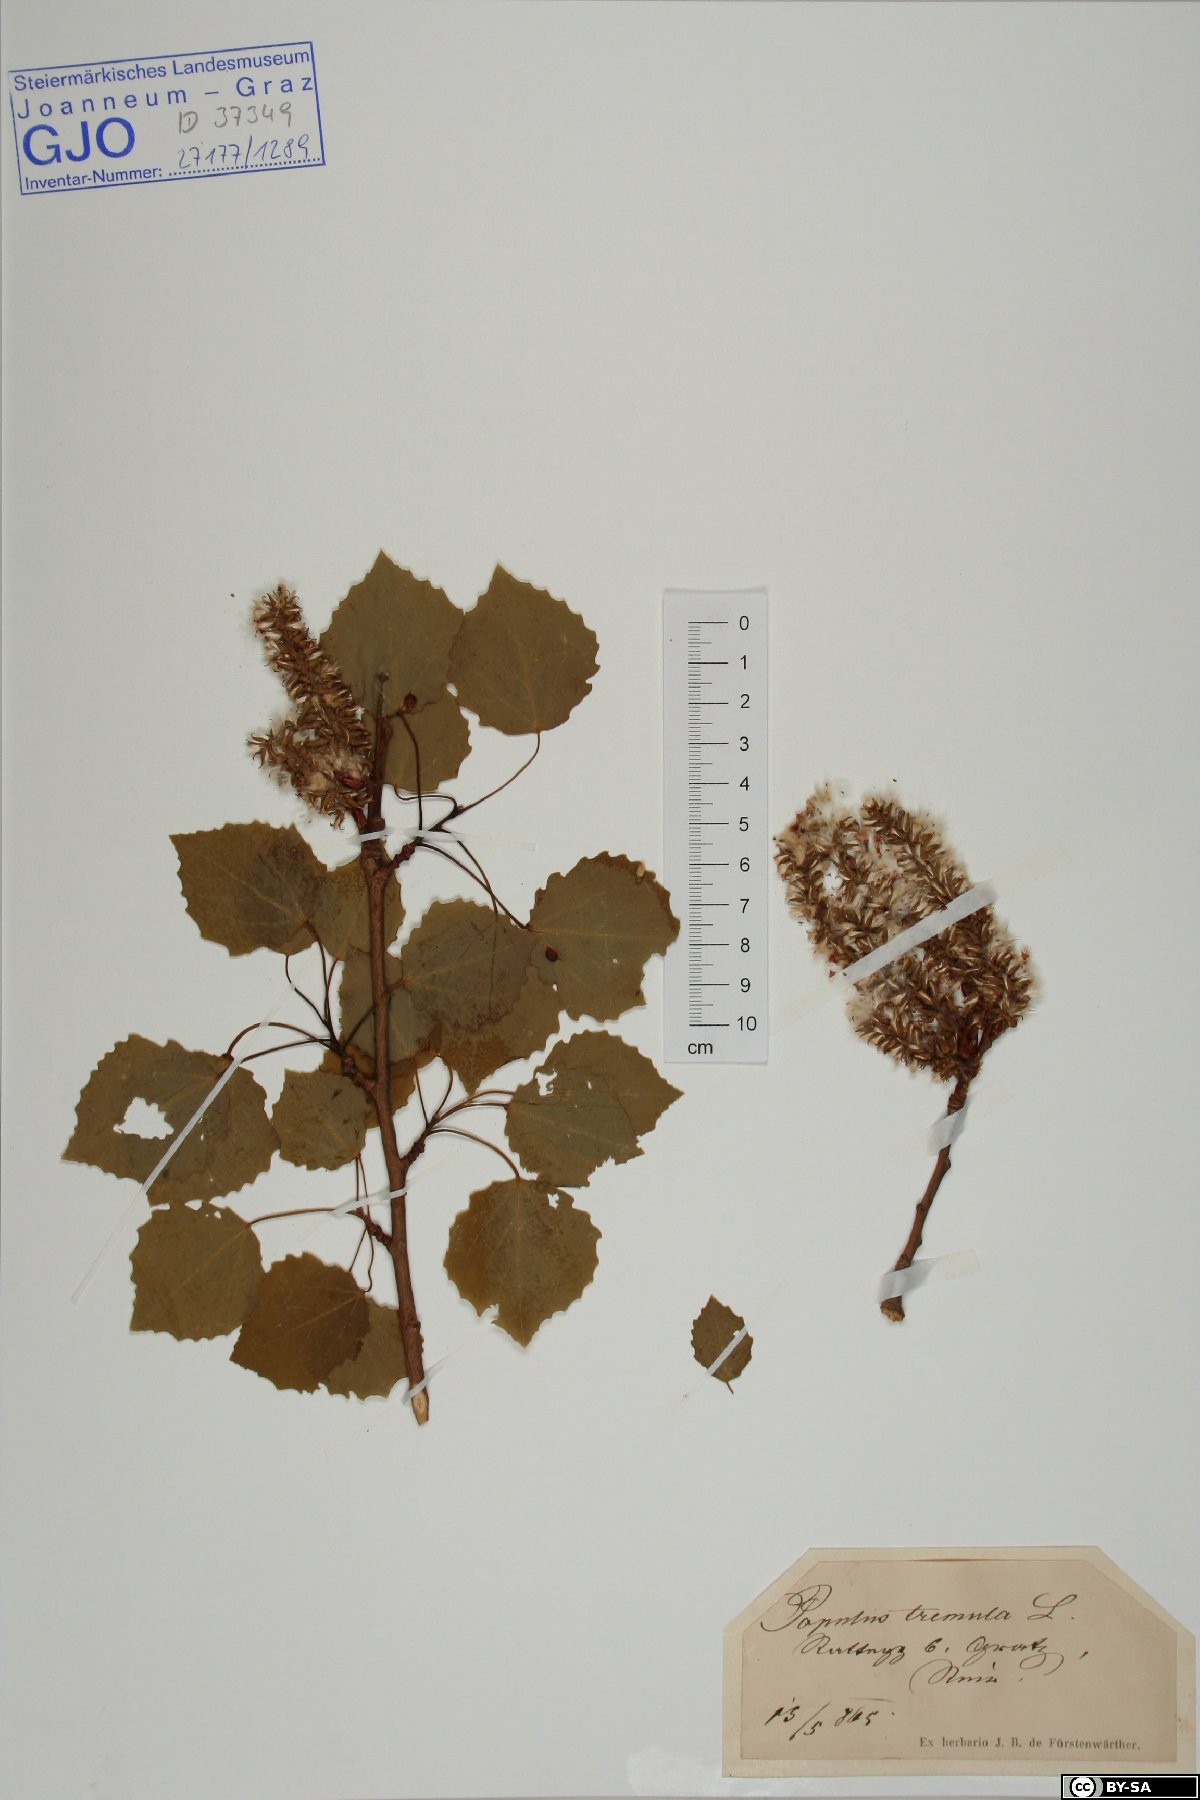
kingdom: Plantae
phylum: Tracheophyta
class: Magnoliopsida
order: Malpighiales
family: Salicaceae
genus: Populus
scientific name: Populus tremula
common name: European aspen
